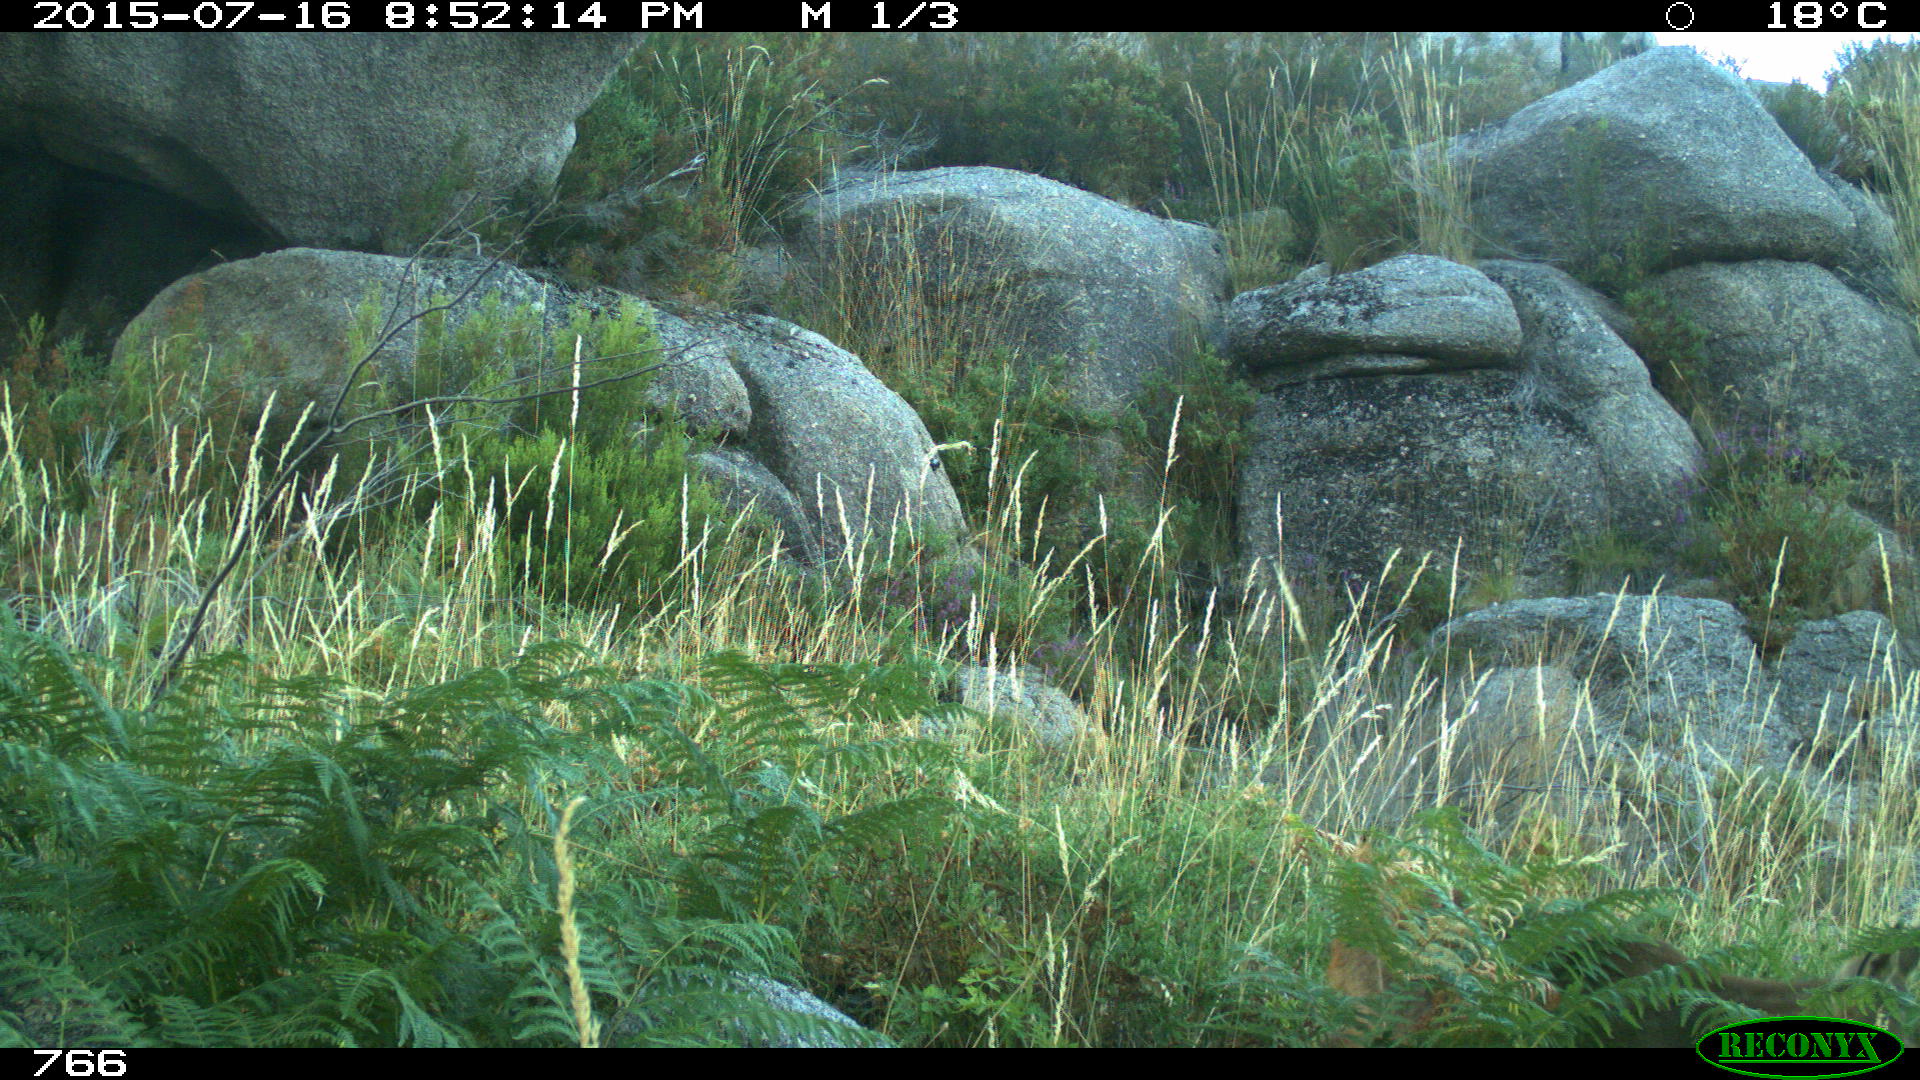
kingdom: Animalia
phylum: Chordata
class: Mammalia
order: Artiodactyla
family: Cervidae
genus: Capreolus
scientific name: Capreolus capreolus
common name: Western roe deer
